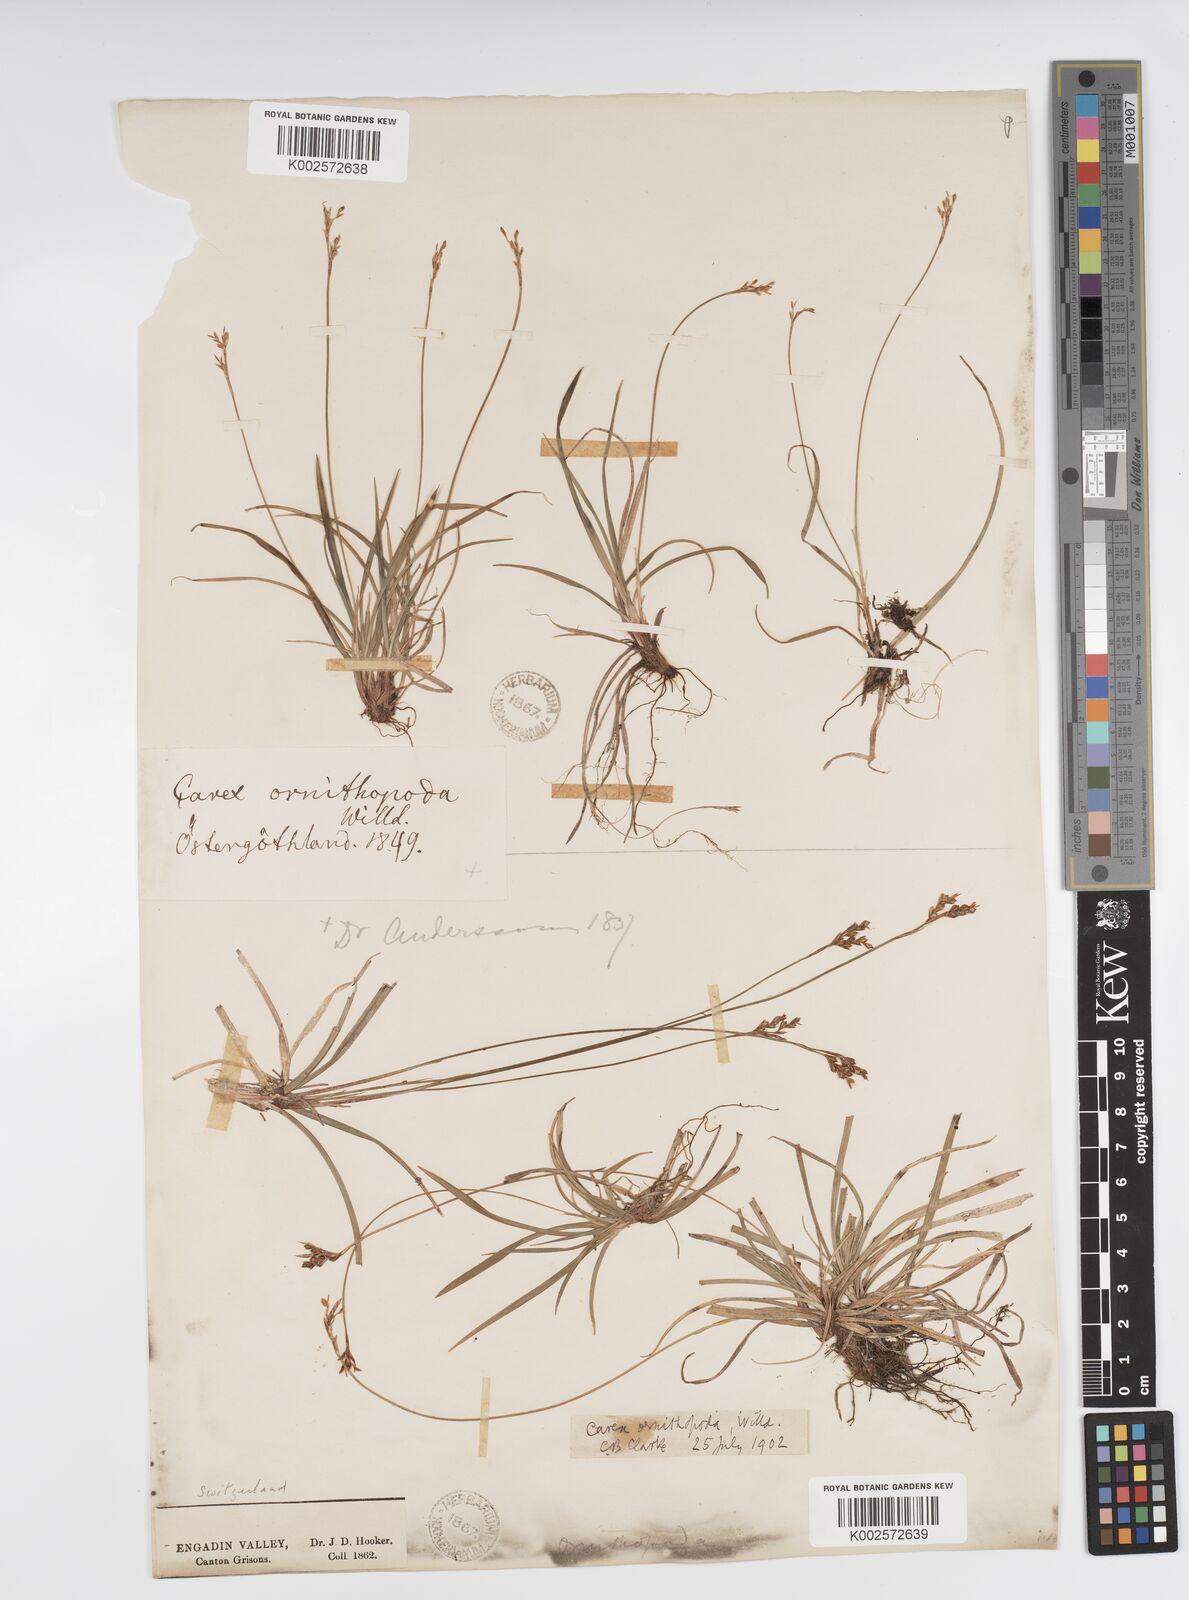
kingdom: Plantae
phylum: Tracheophyta
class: Liliopsida
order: Poales
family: Cyperaceae
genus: Carex
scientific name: Carex ornithopoda
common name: Bird's-foot sedge
